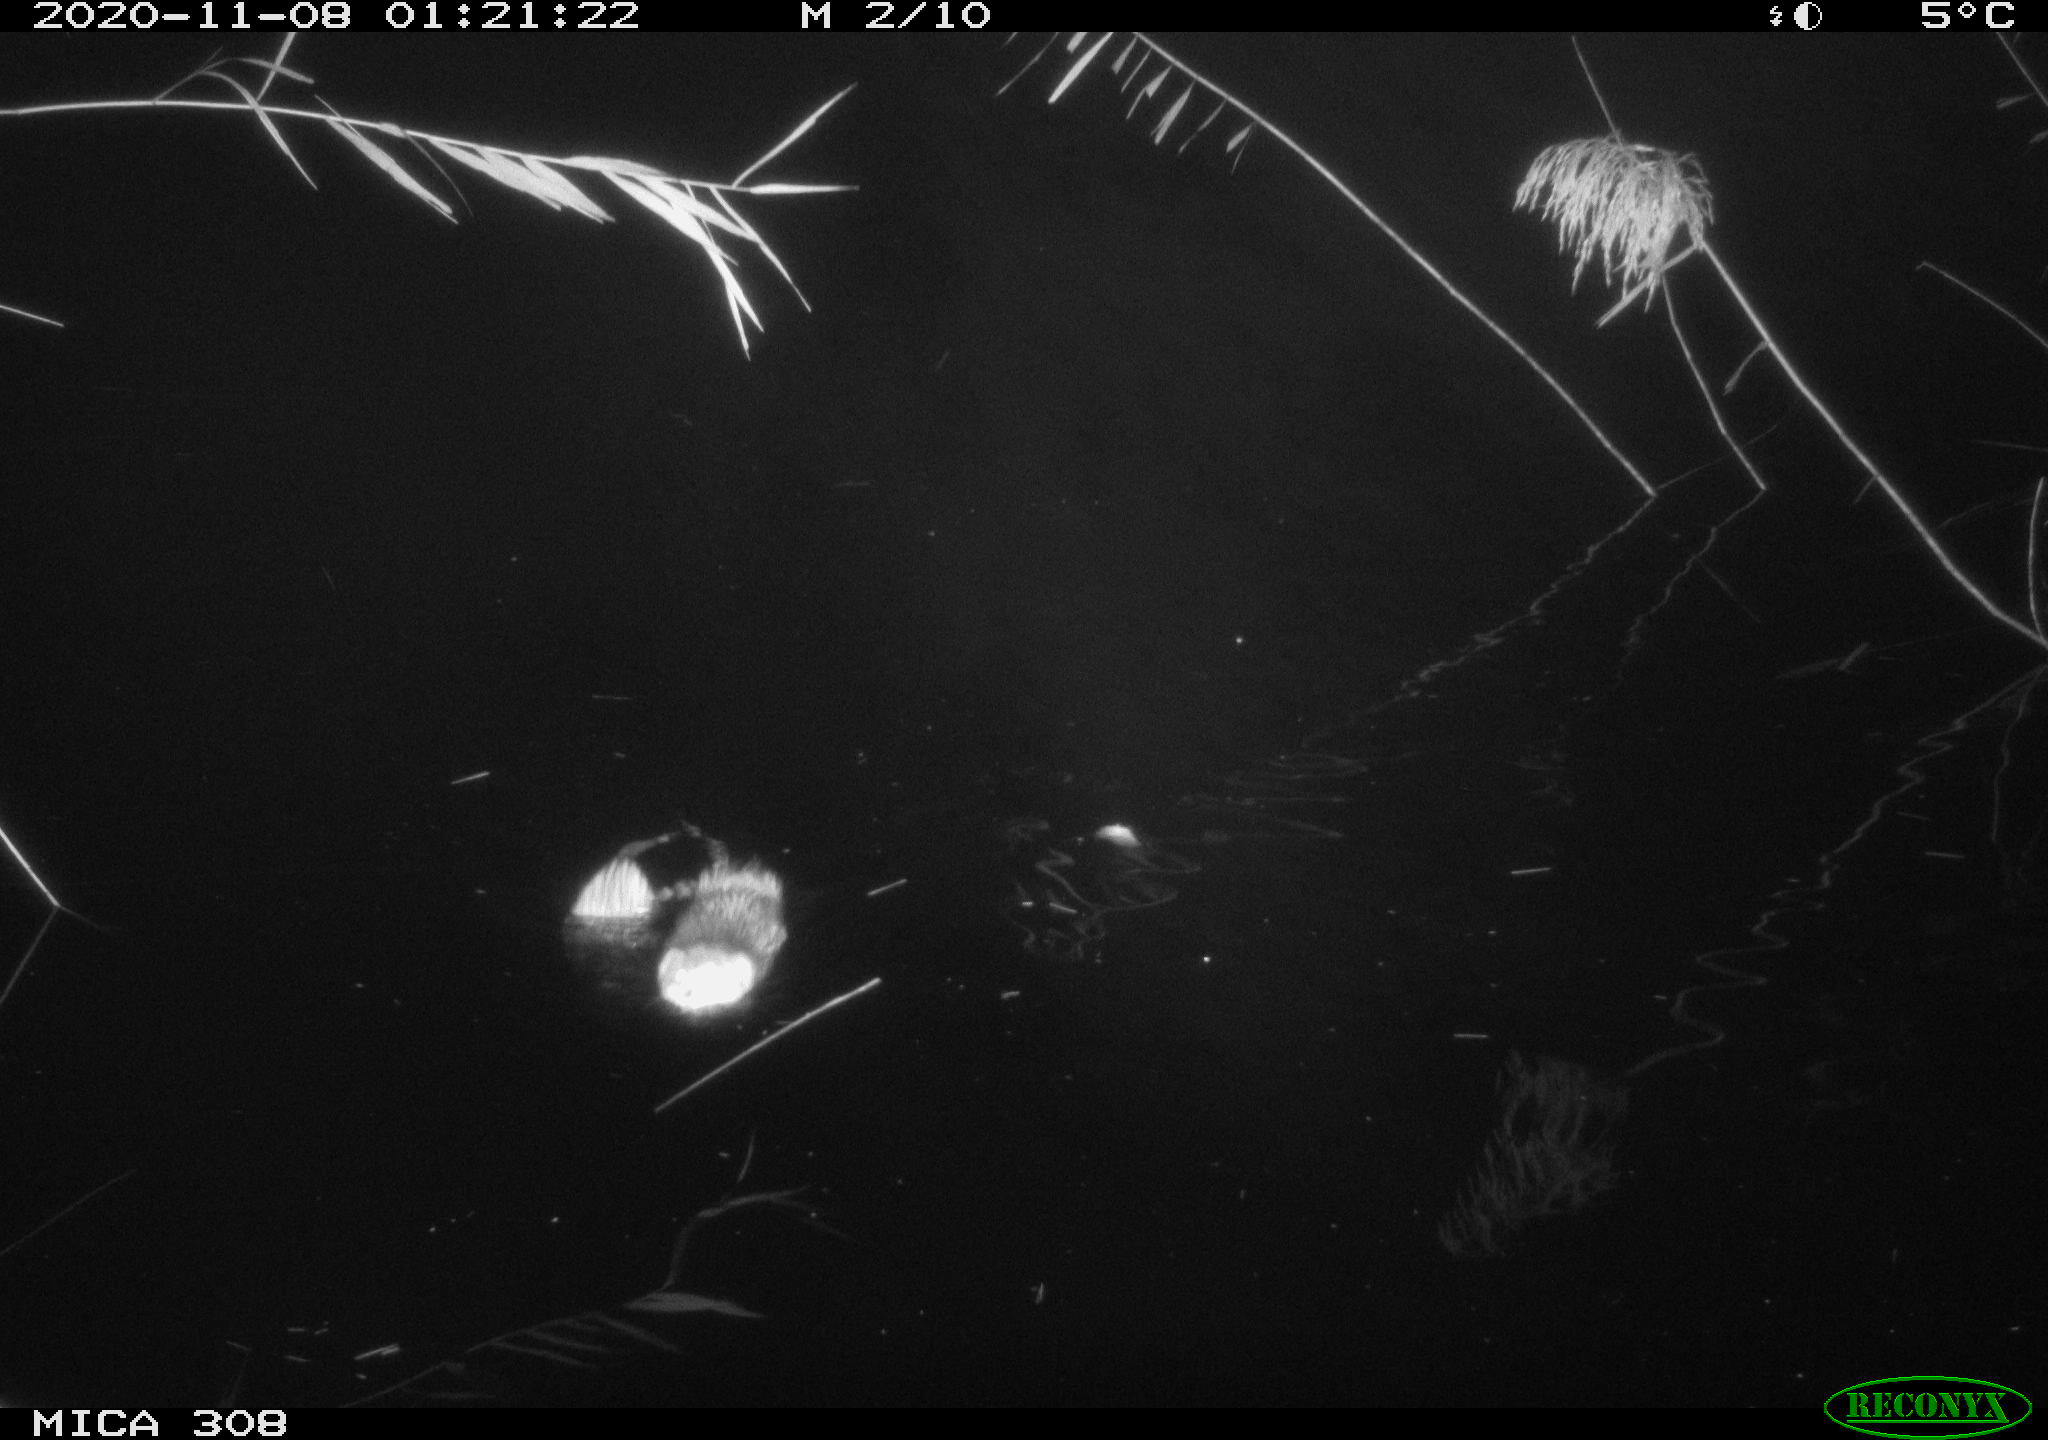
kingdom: Animalia
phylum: Chordata
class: Mammalia
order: Rodentia
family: Cricetidae
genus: Ondatra
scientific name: Ondatra zibethicus
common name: Muskrat
